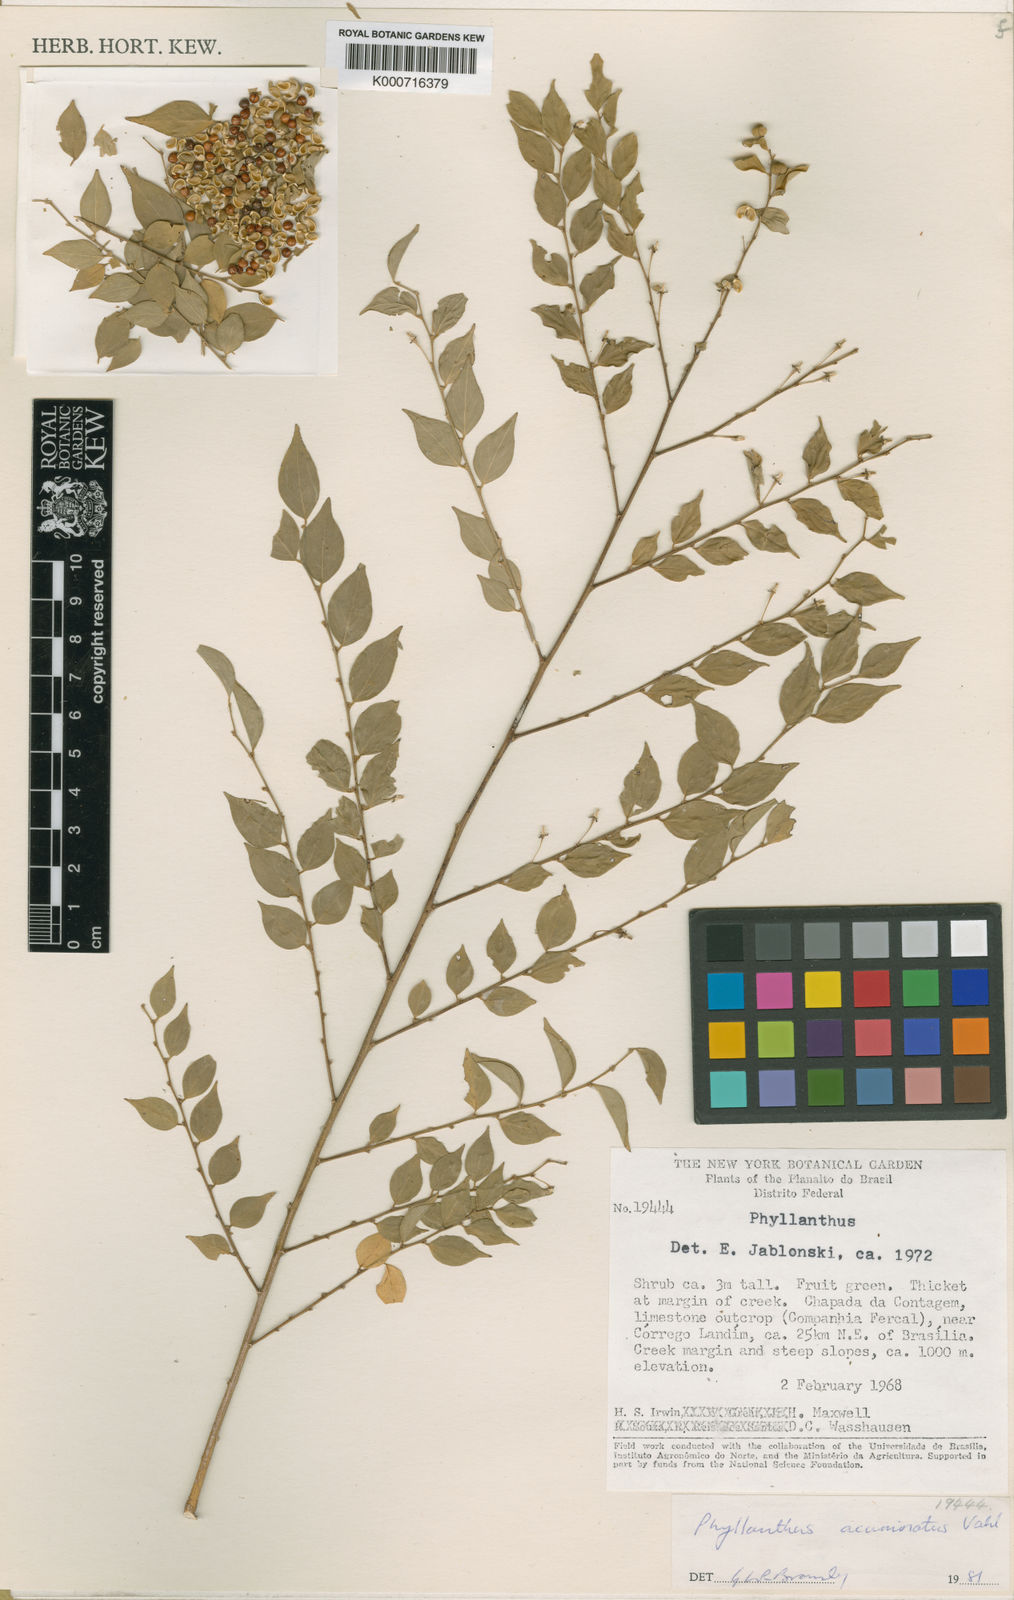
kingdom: Plantae
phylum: Tracheophyta
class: Magnoliopsida
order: Malpighiales
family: Phyllanthaceae
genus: Phyllanthus
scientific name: Phyllanthus acuminatus
